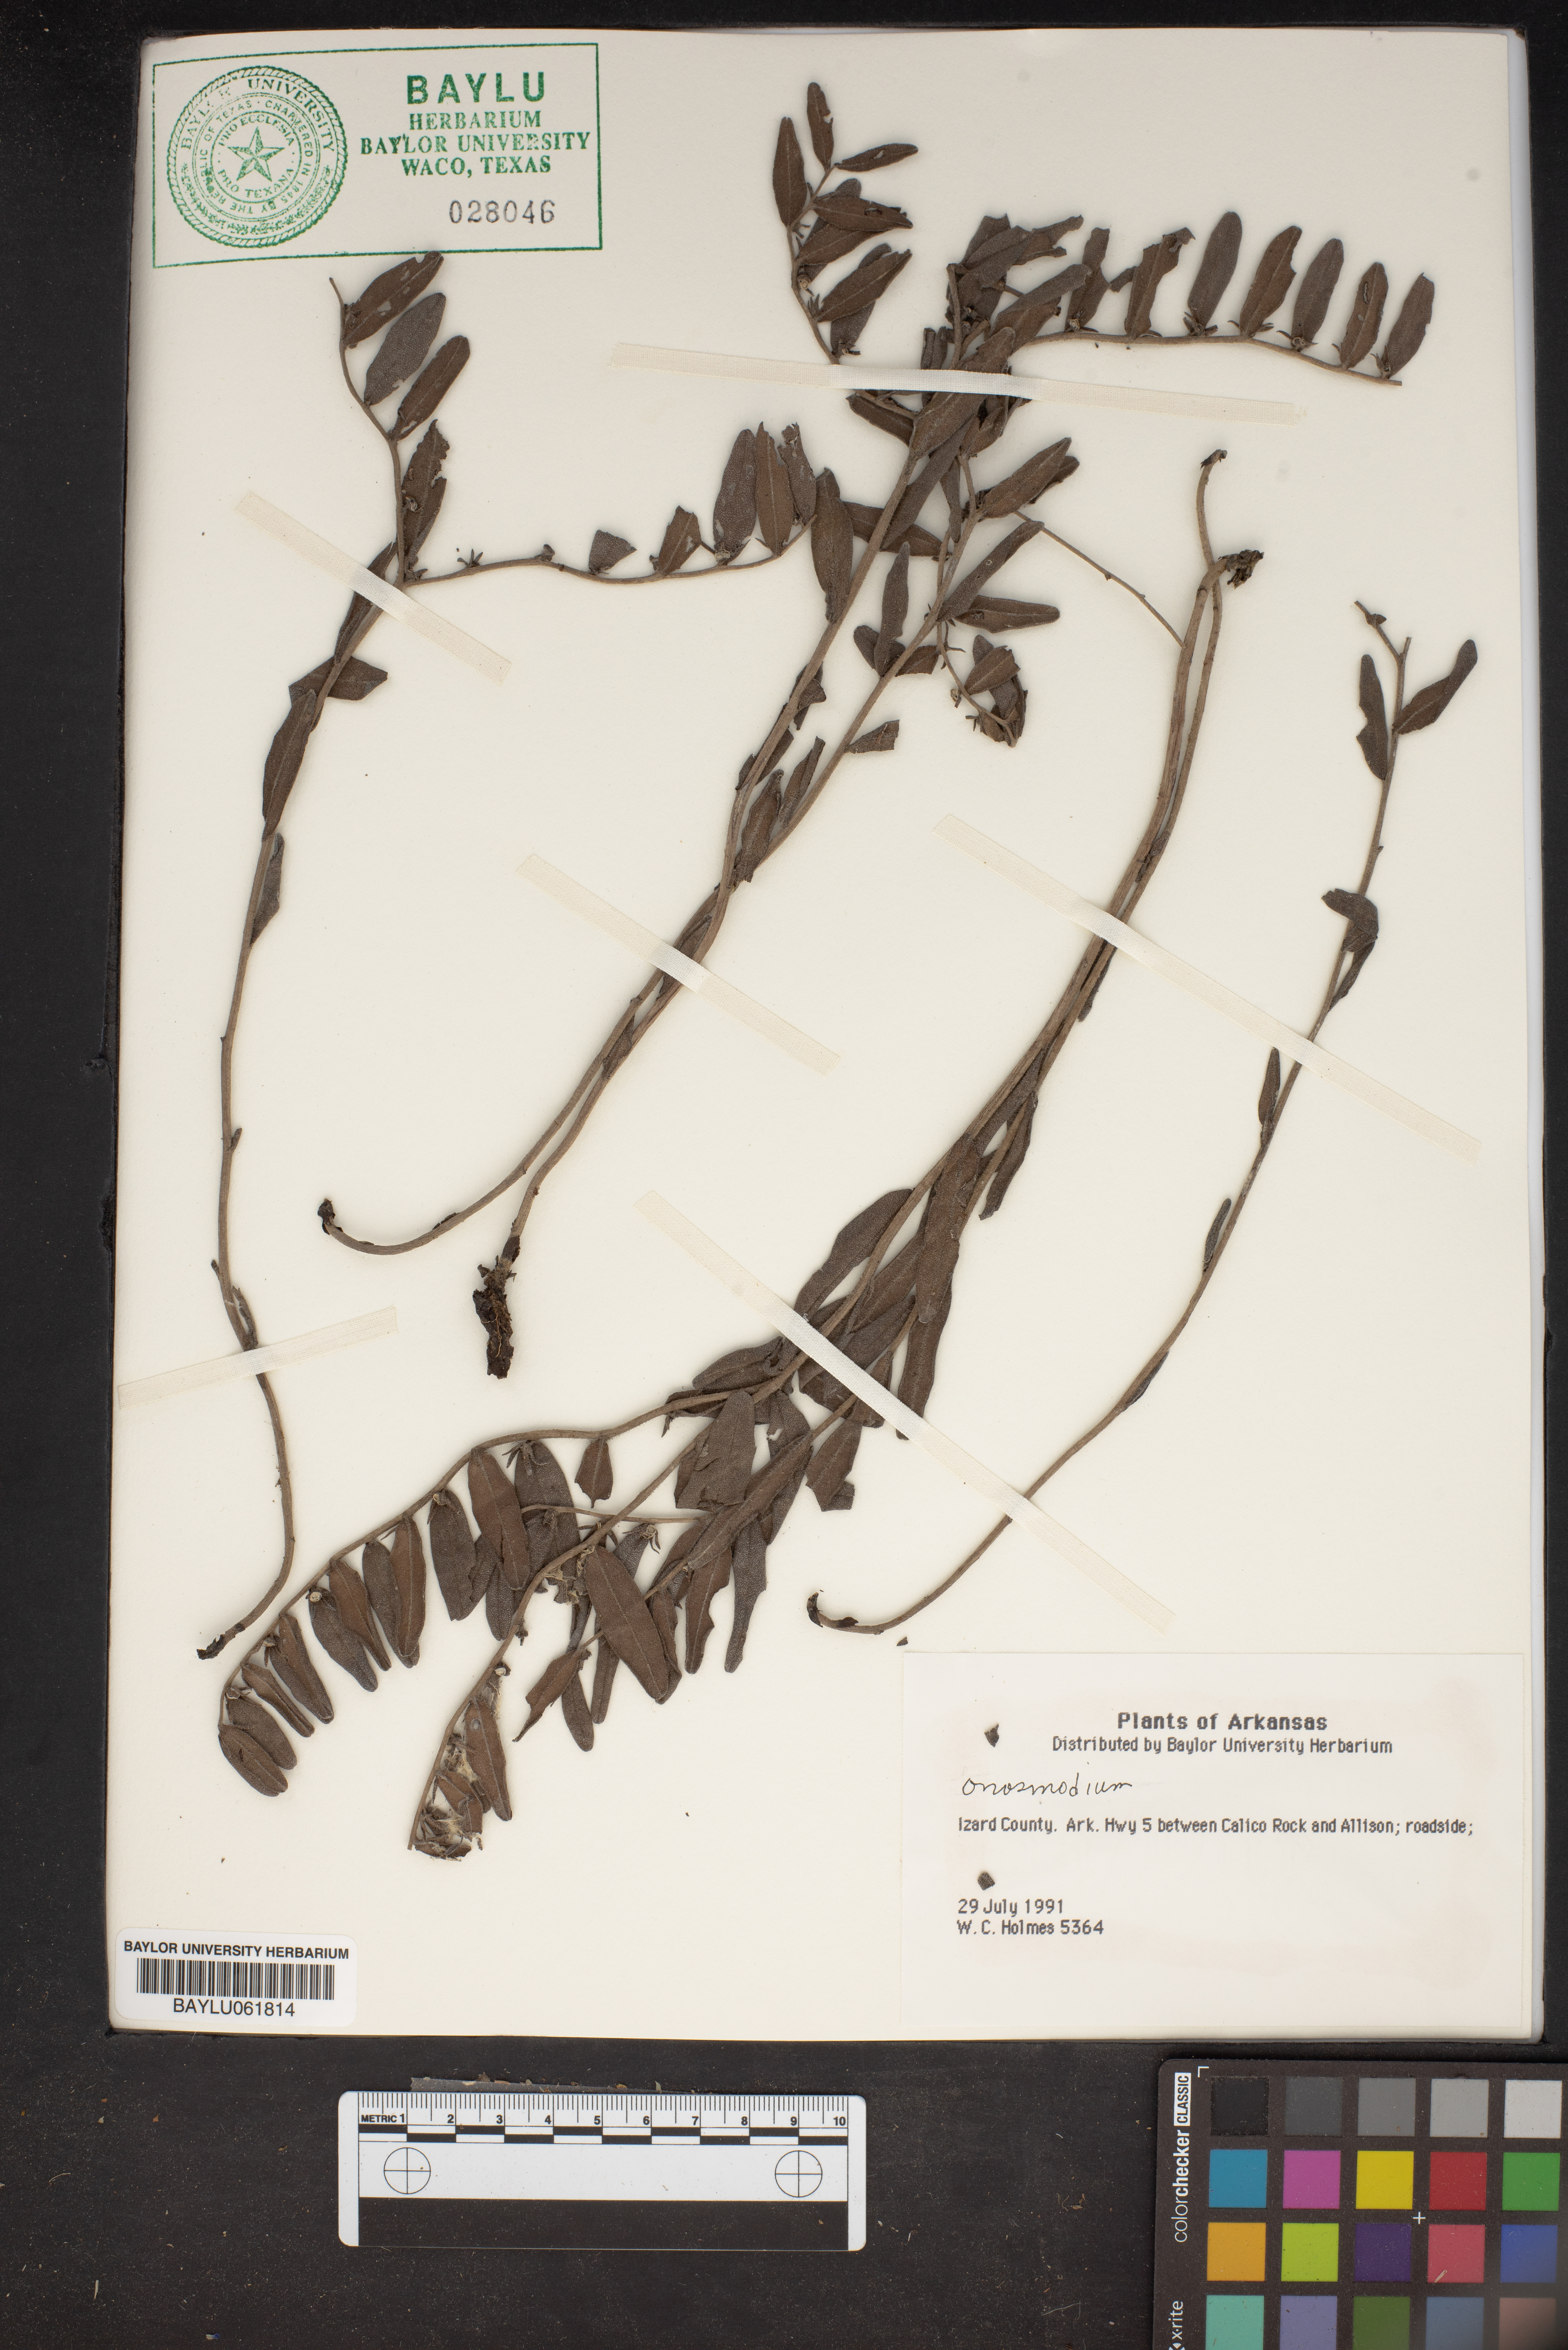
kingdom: Plantae
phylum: Tracheophyta
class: Magnoliopsida
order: Boraginales
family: Boraginaceae
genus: Lithospermum
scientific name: Lithospermum
